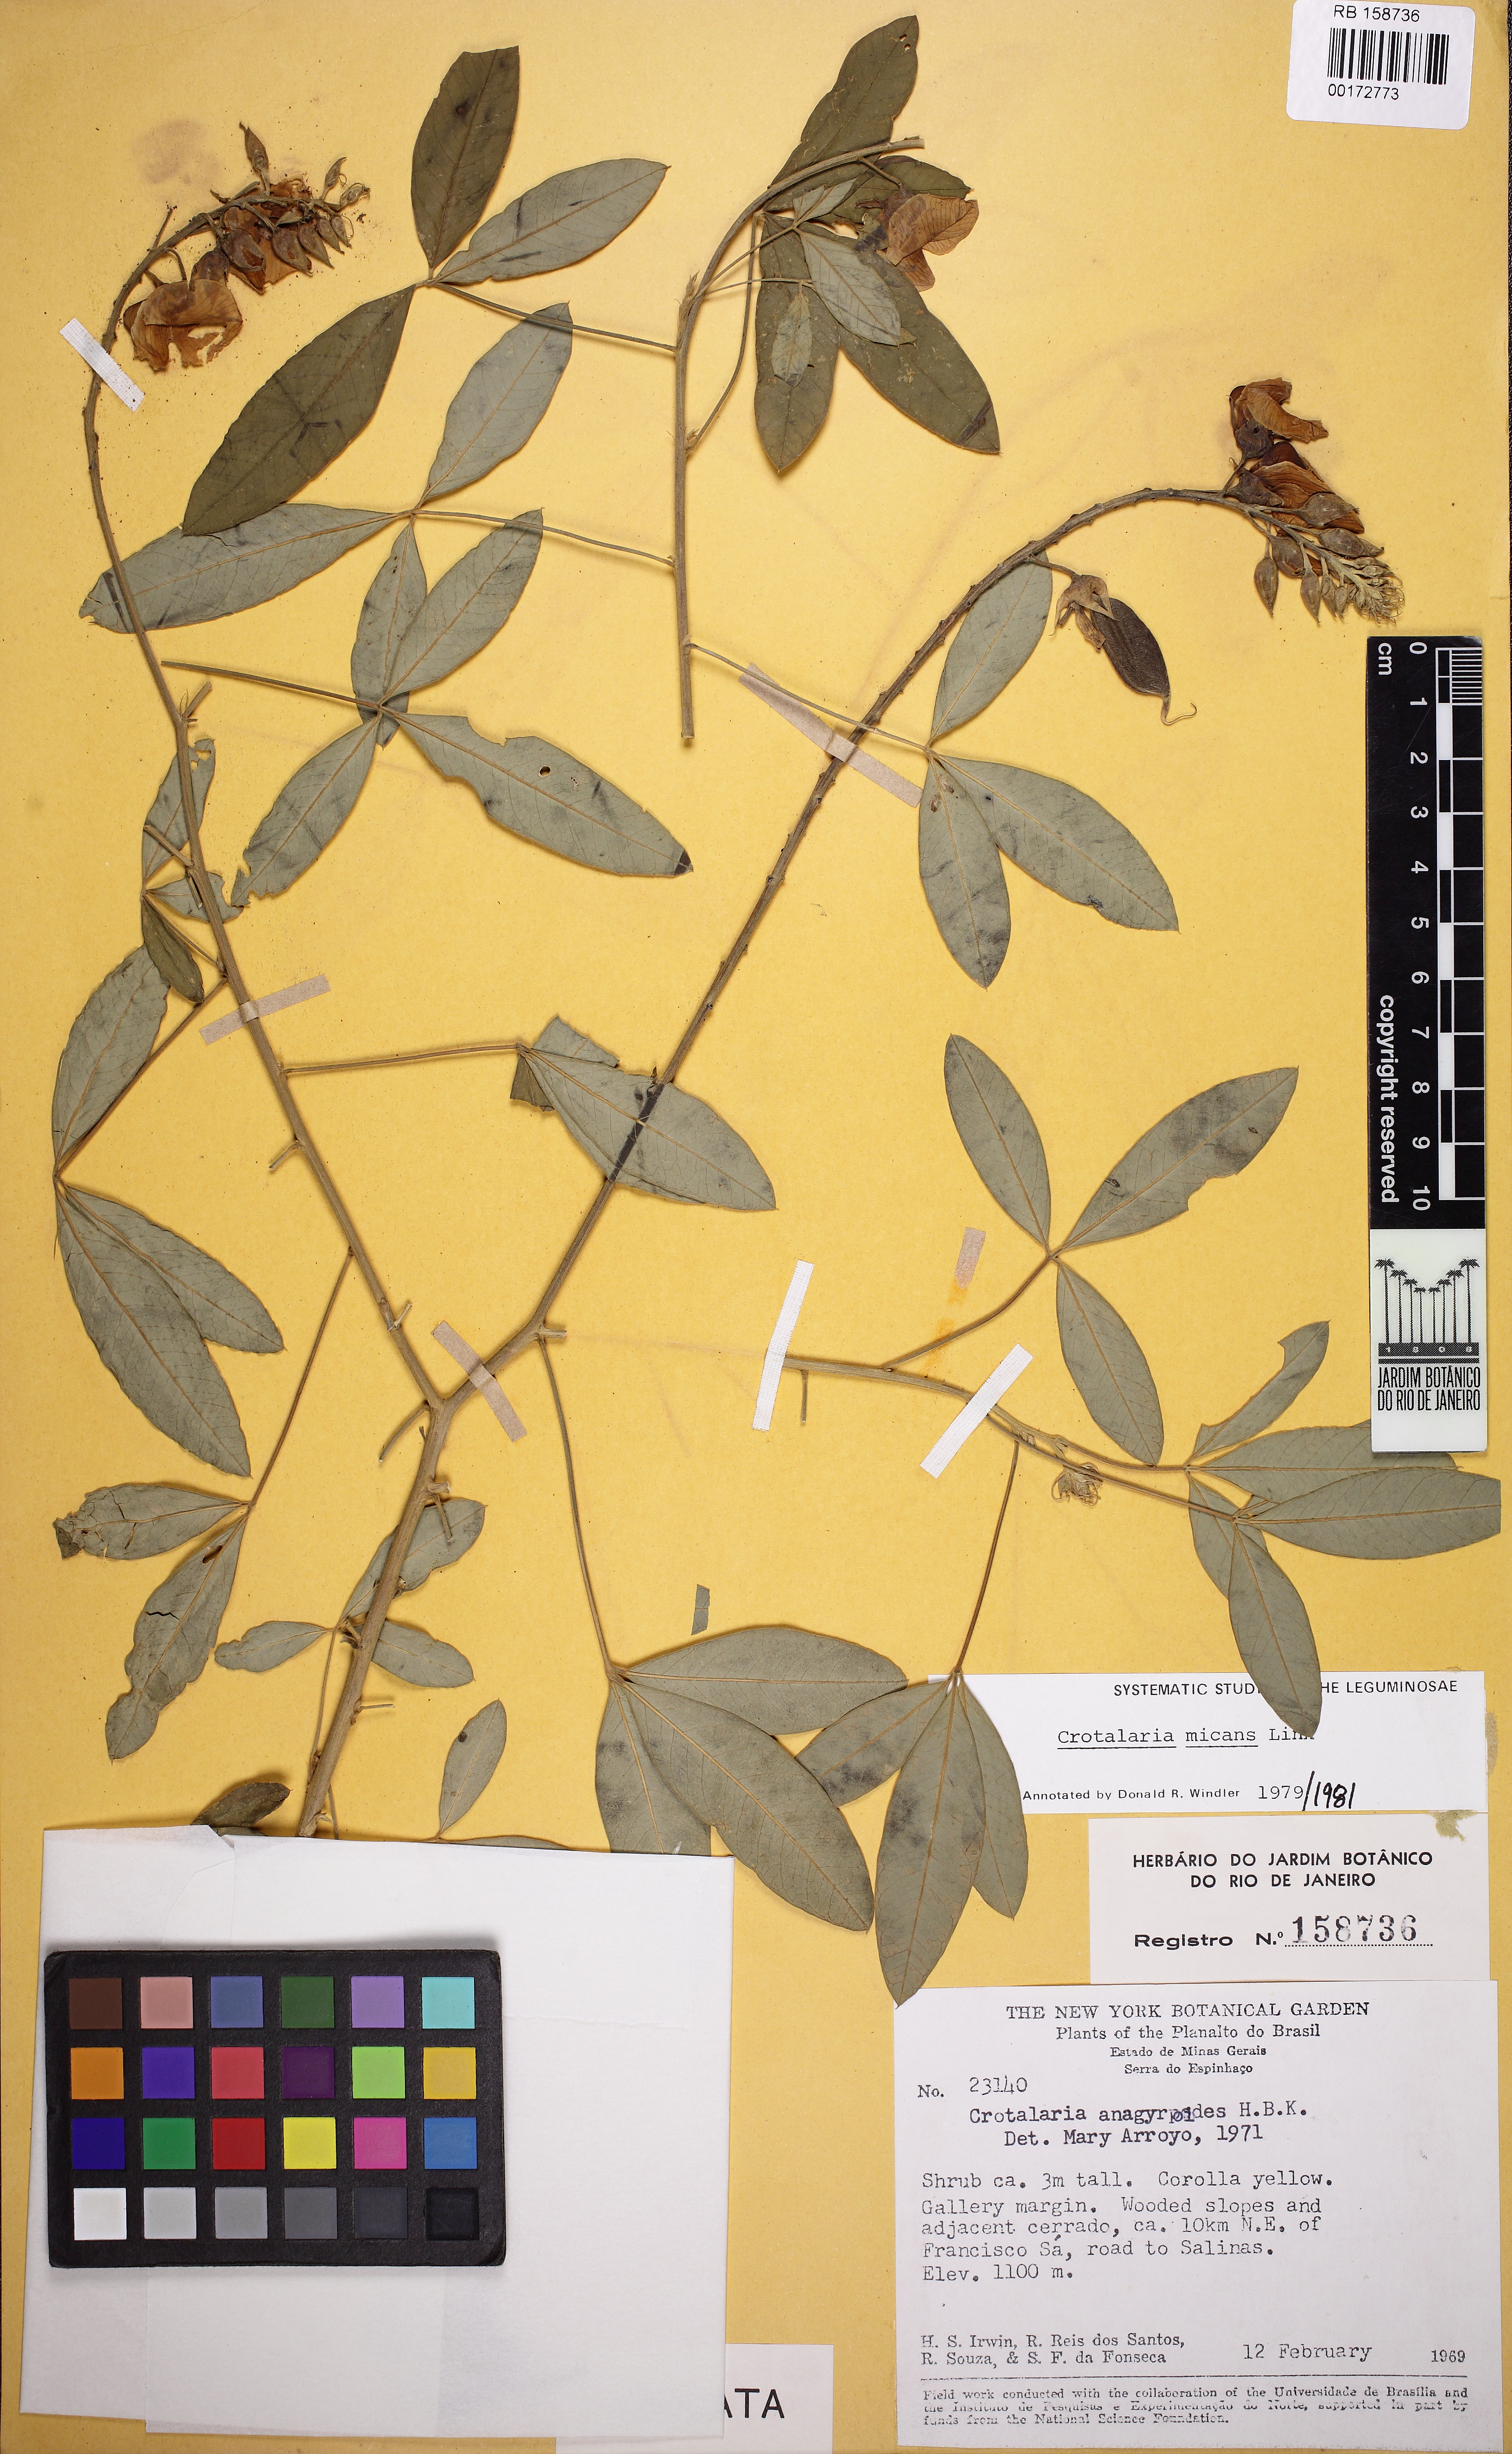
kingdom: Plantae
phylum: Tracheophyta
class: Magnoliopsida
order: Fabales
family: Fabaceae
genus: Crotalaria
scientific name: Crotalaria micans
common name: Caracas rattlebox
